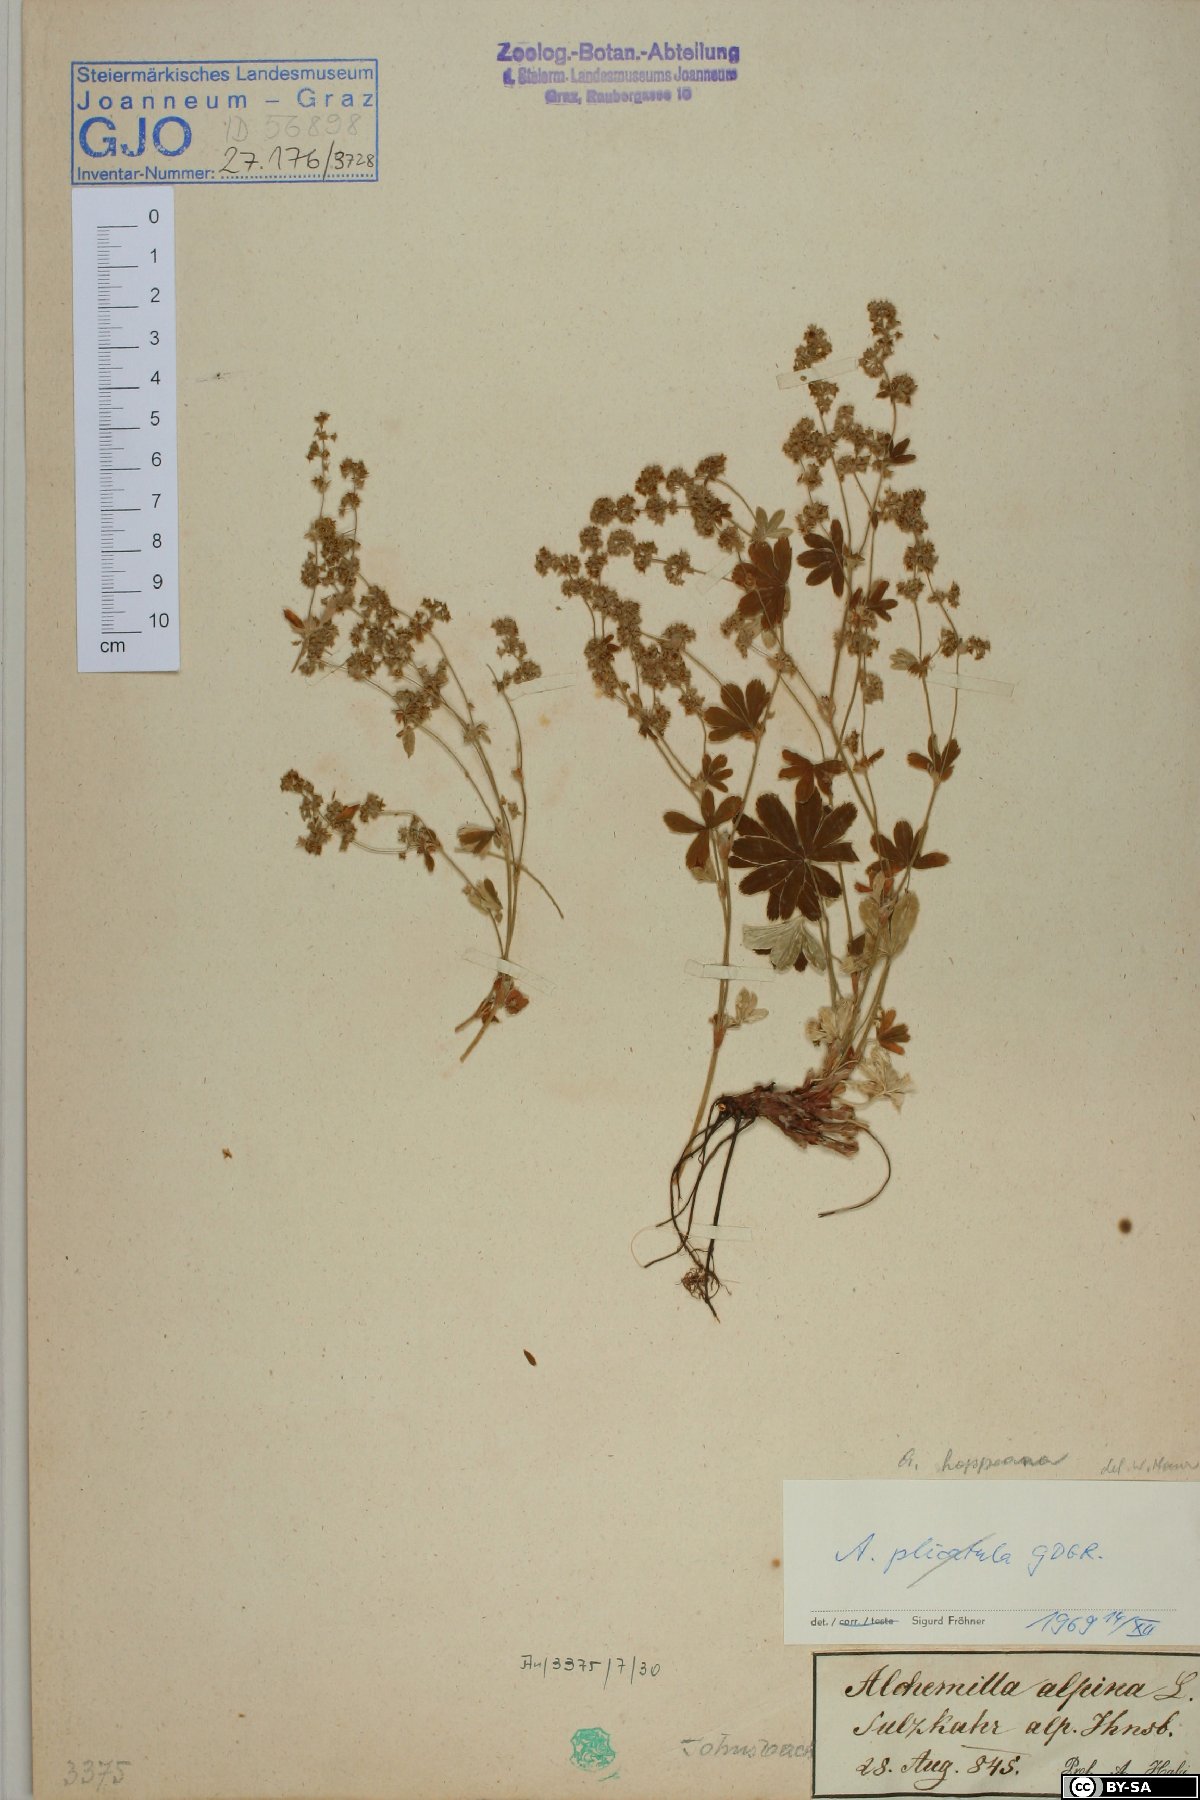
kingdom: Plantae
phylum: Tracheophyta
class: Magnoliopsida
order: Rosales
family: Rosaceae
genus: Alchemilla
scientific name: Alchemilla hoppeana
